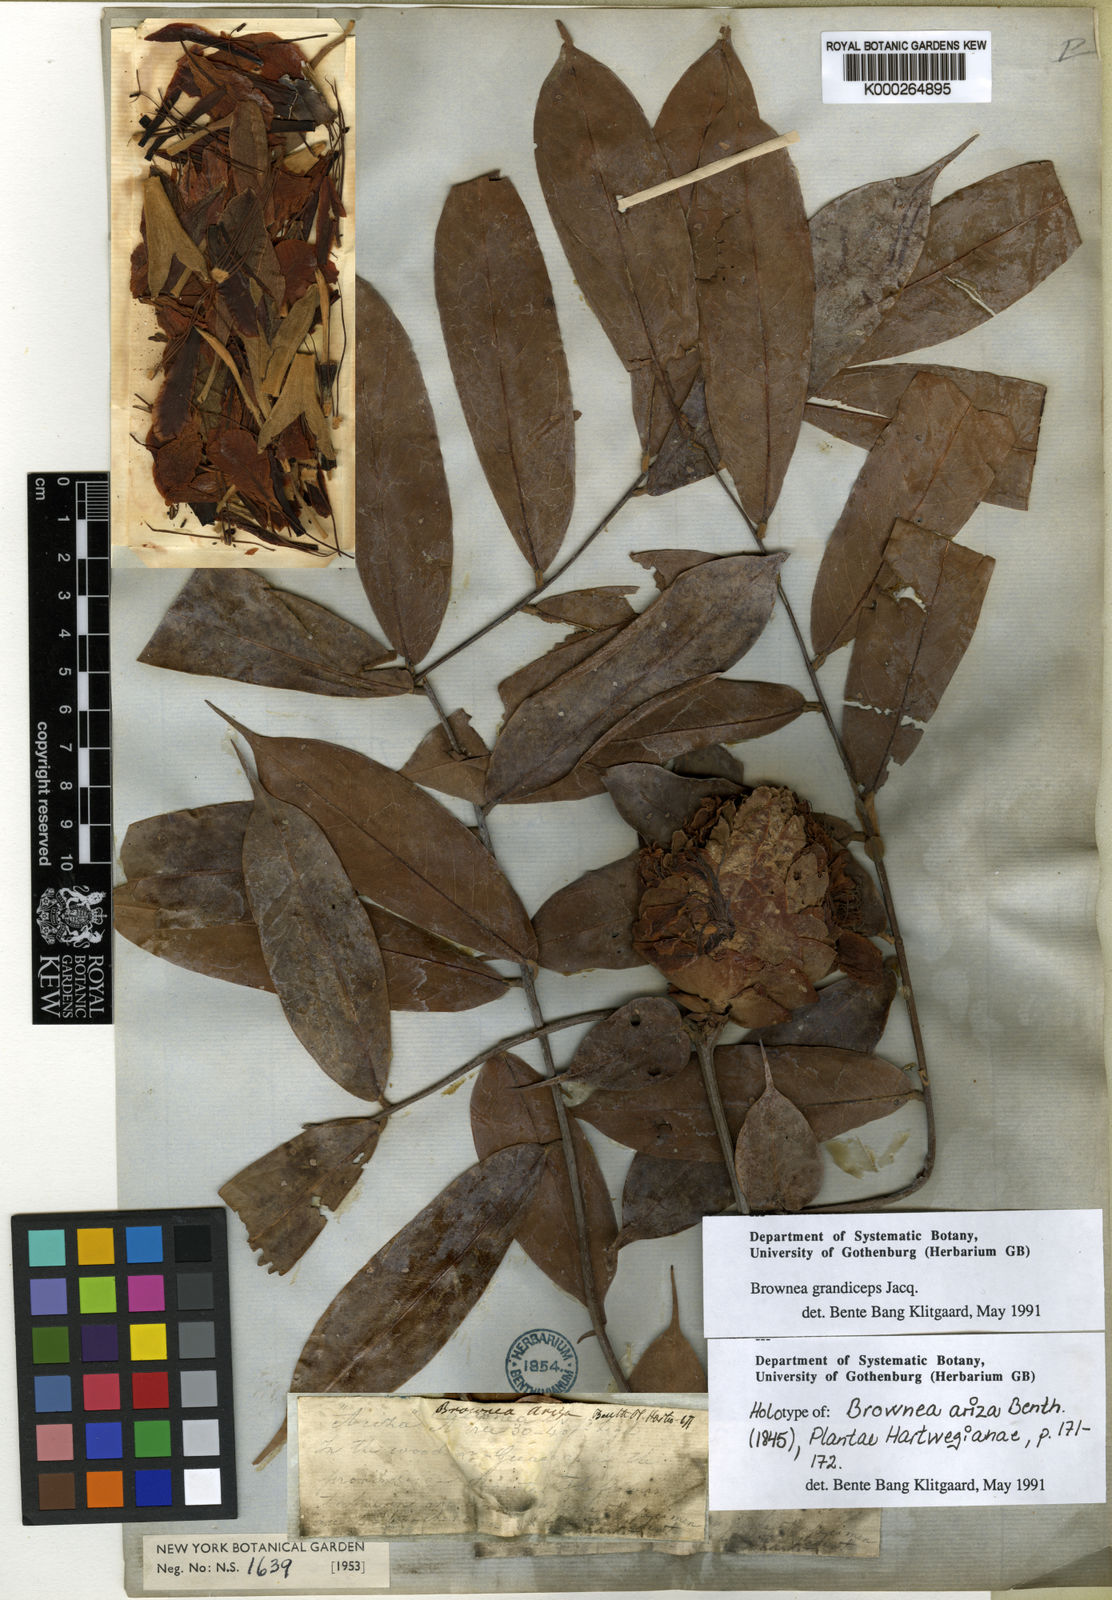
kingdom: Plantae
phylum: Tracheophyta
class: Magnoliopsida
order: Fabales
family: Fabaceae
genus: Brownea
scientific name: Brownea grandiceps
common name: Rose-of-venezuela
